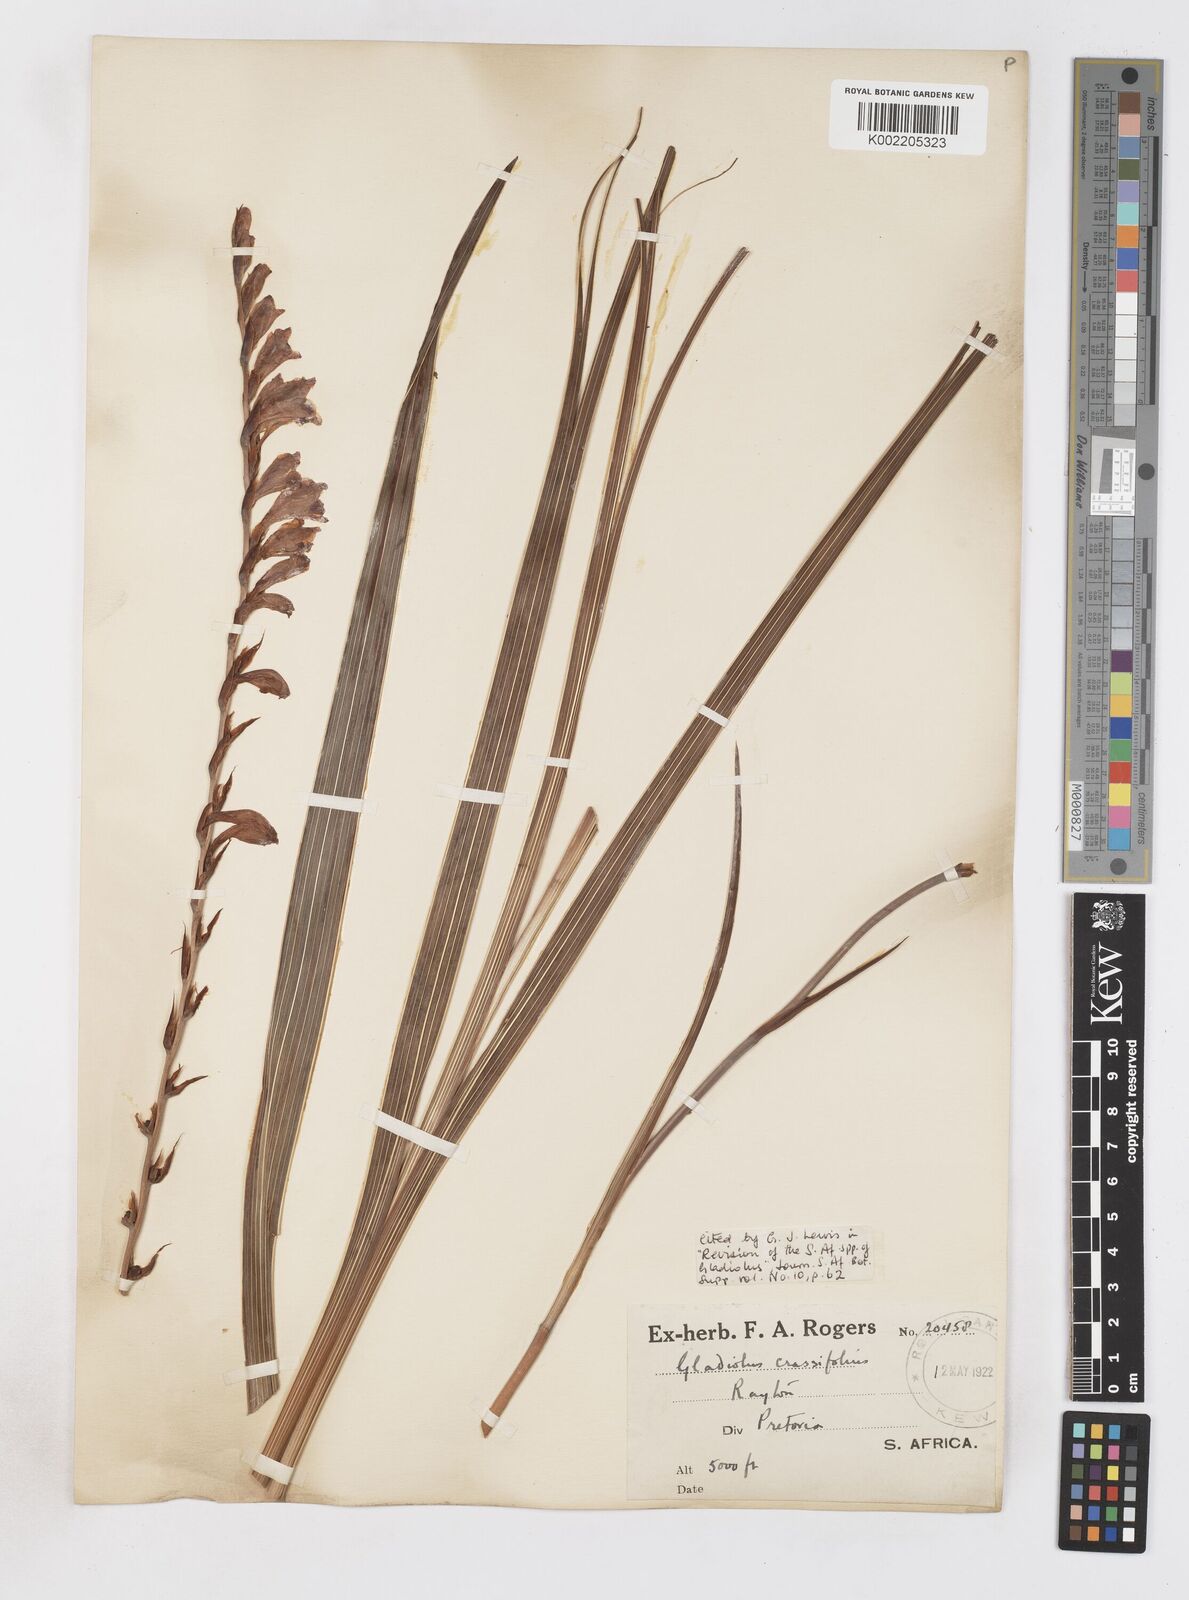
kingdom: Plantae
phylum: Tracheophyta
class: Liliopsida
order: Asparagales
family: Iridaceae
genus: Gladiolus
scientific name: Gladiolus crassifolius
